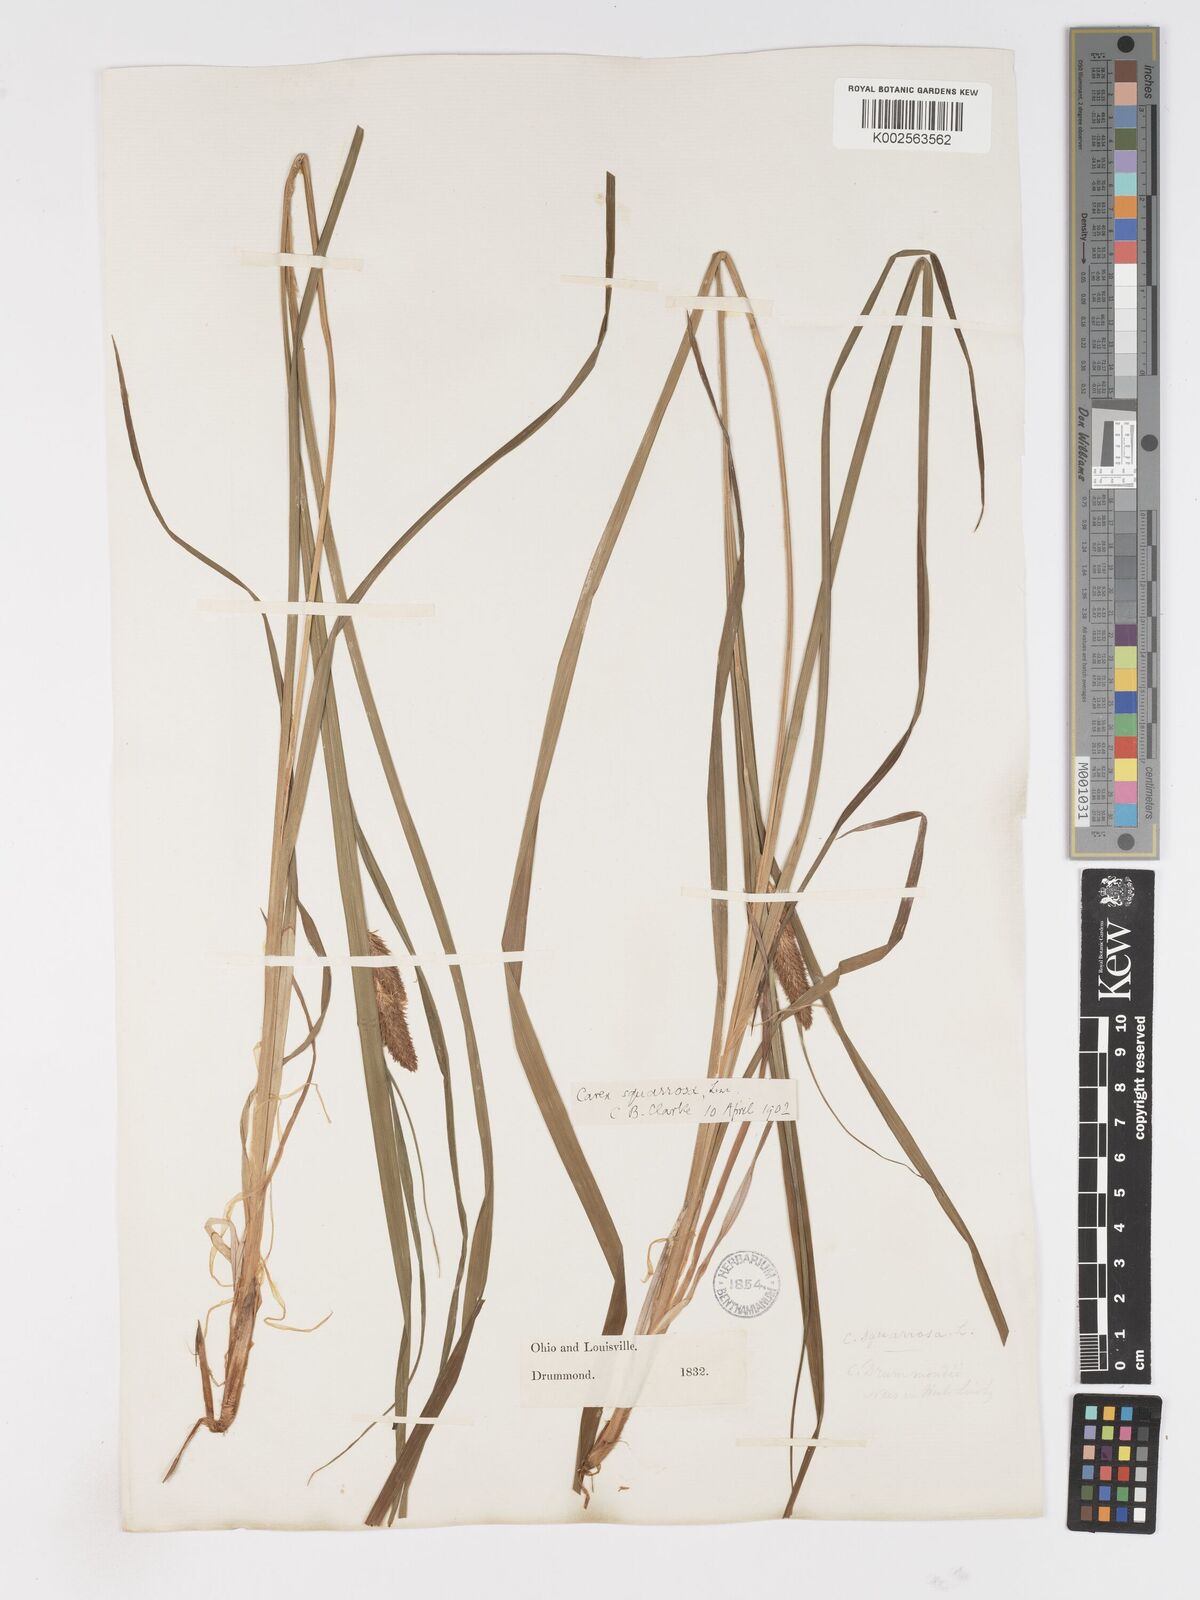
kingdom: Plantae
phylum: Tracheophyta
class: Liliopsida
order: Poales
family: Cyperaceae
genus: Carex
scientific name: Carex squarrosa
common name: Narrow-leaved cattail sedge
